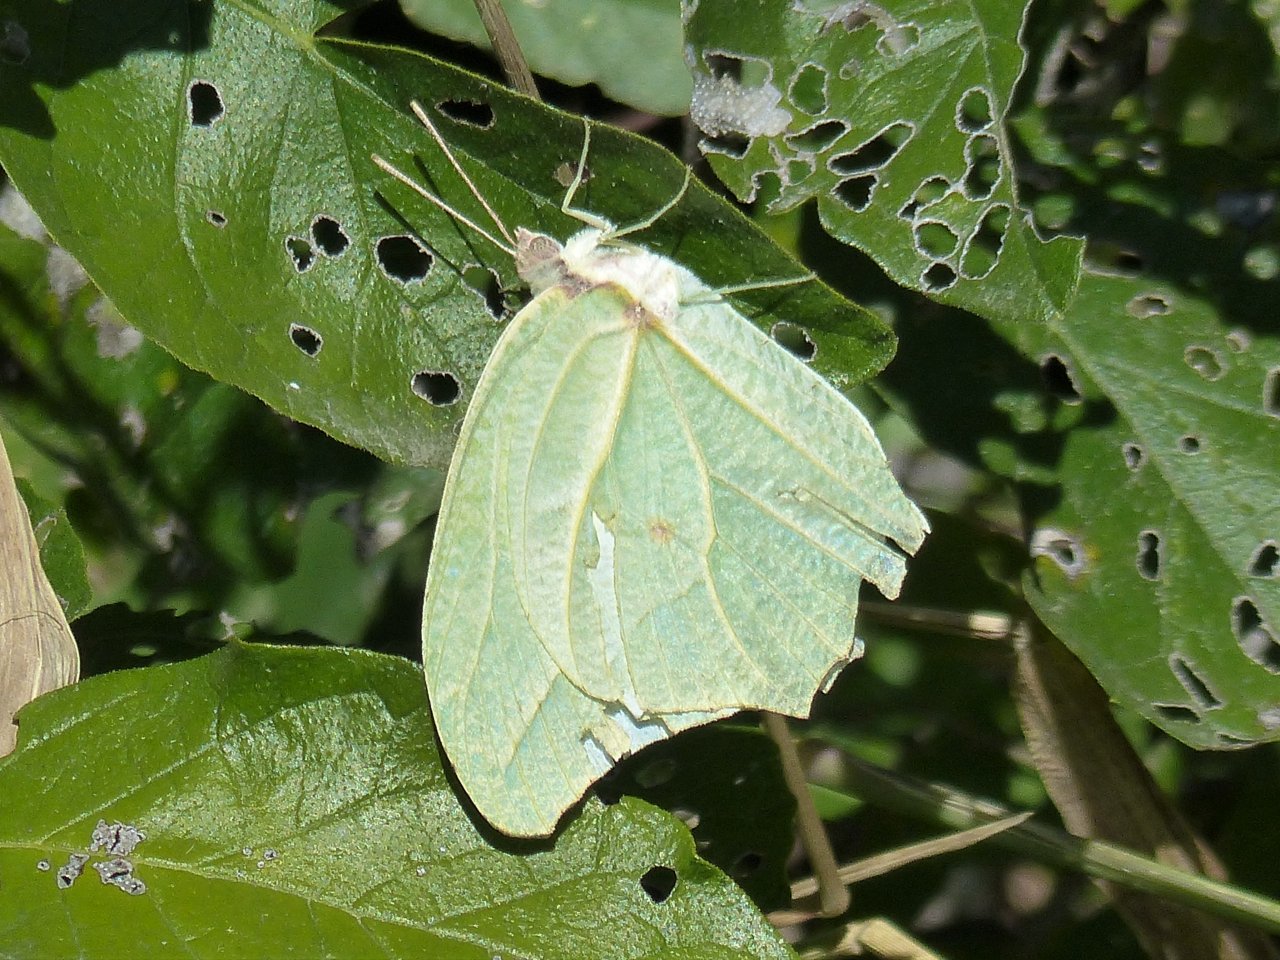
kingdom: Animalia
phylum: Arthropoda
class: Insecta
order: Lepidoptera
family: Pieridae
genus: Anteos
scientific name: Anteos clorinde
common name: White Angled-Sulphur
